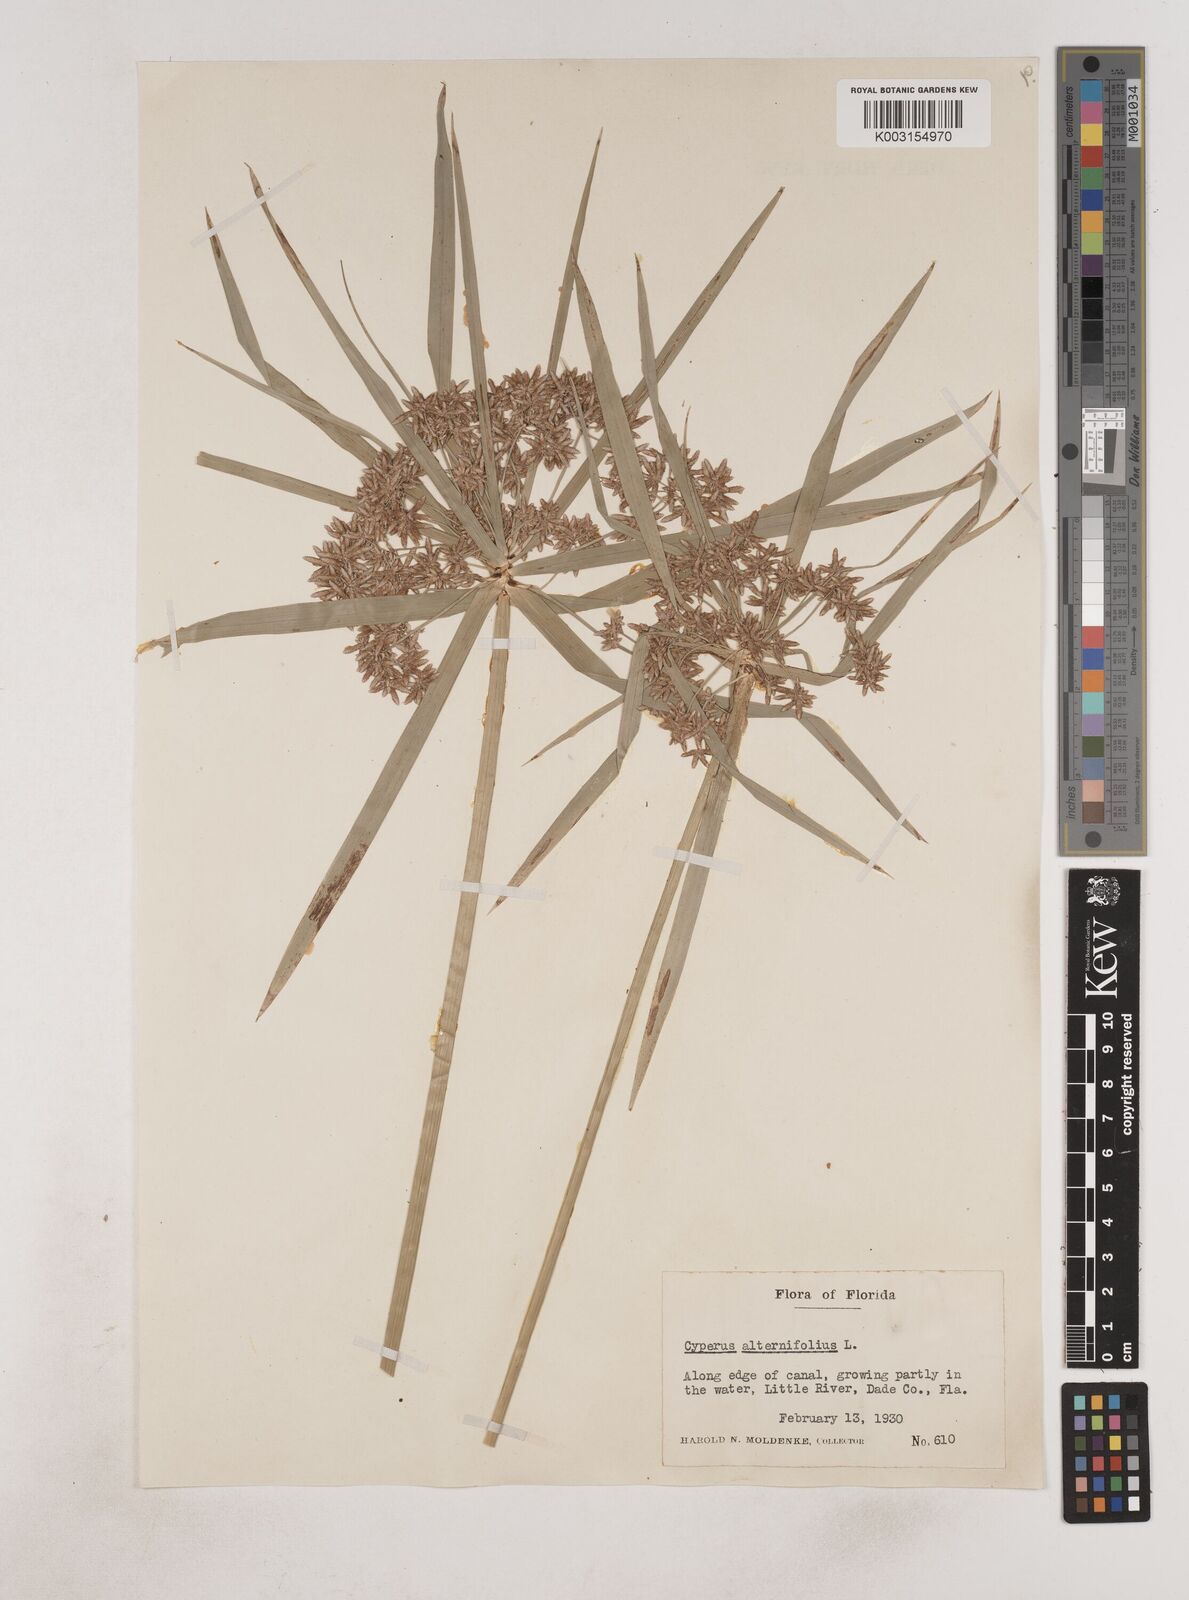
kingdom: Plantae
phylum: Tracheophyta
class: Liliopsida
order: Poales
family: Cyperaceae
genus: Cyperus
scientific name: Cyperus alternifolius
